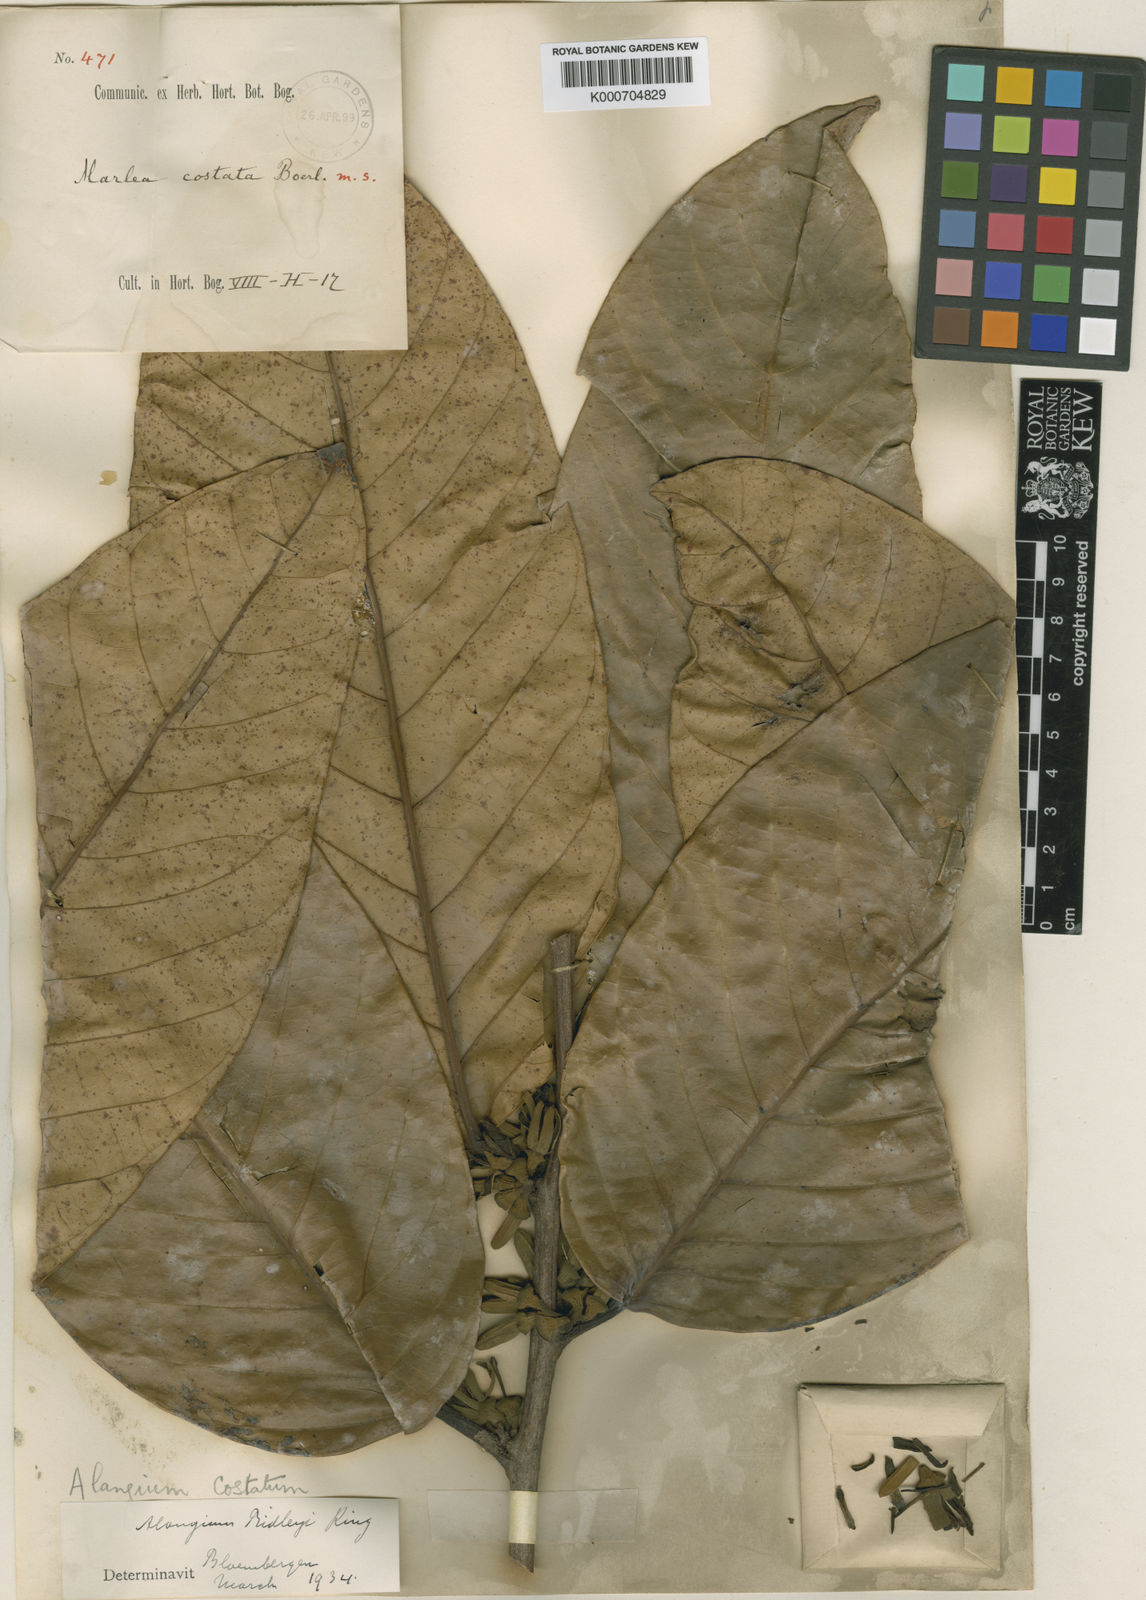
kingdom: Plantae
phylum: Tracheophyta
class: Magnoliopsida
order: Cornales
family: Cornaceae
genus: Alangium
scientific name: Alangium ridleyi
